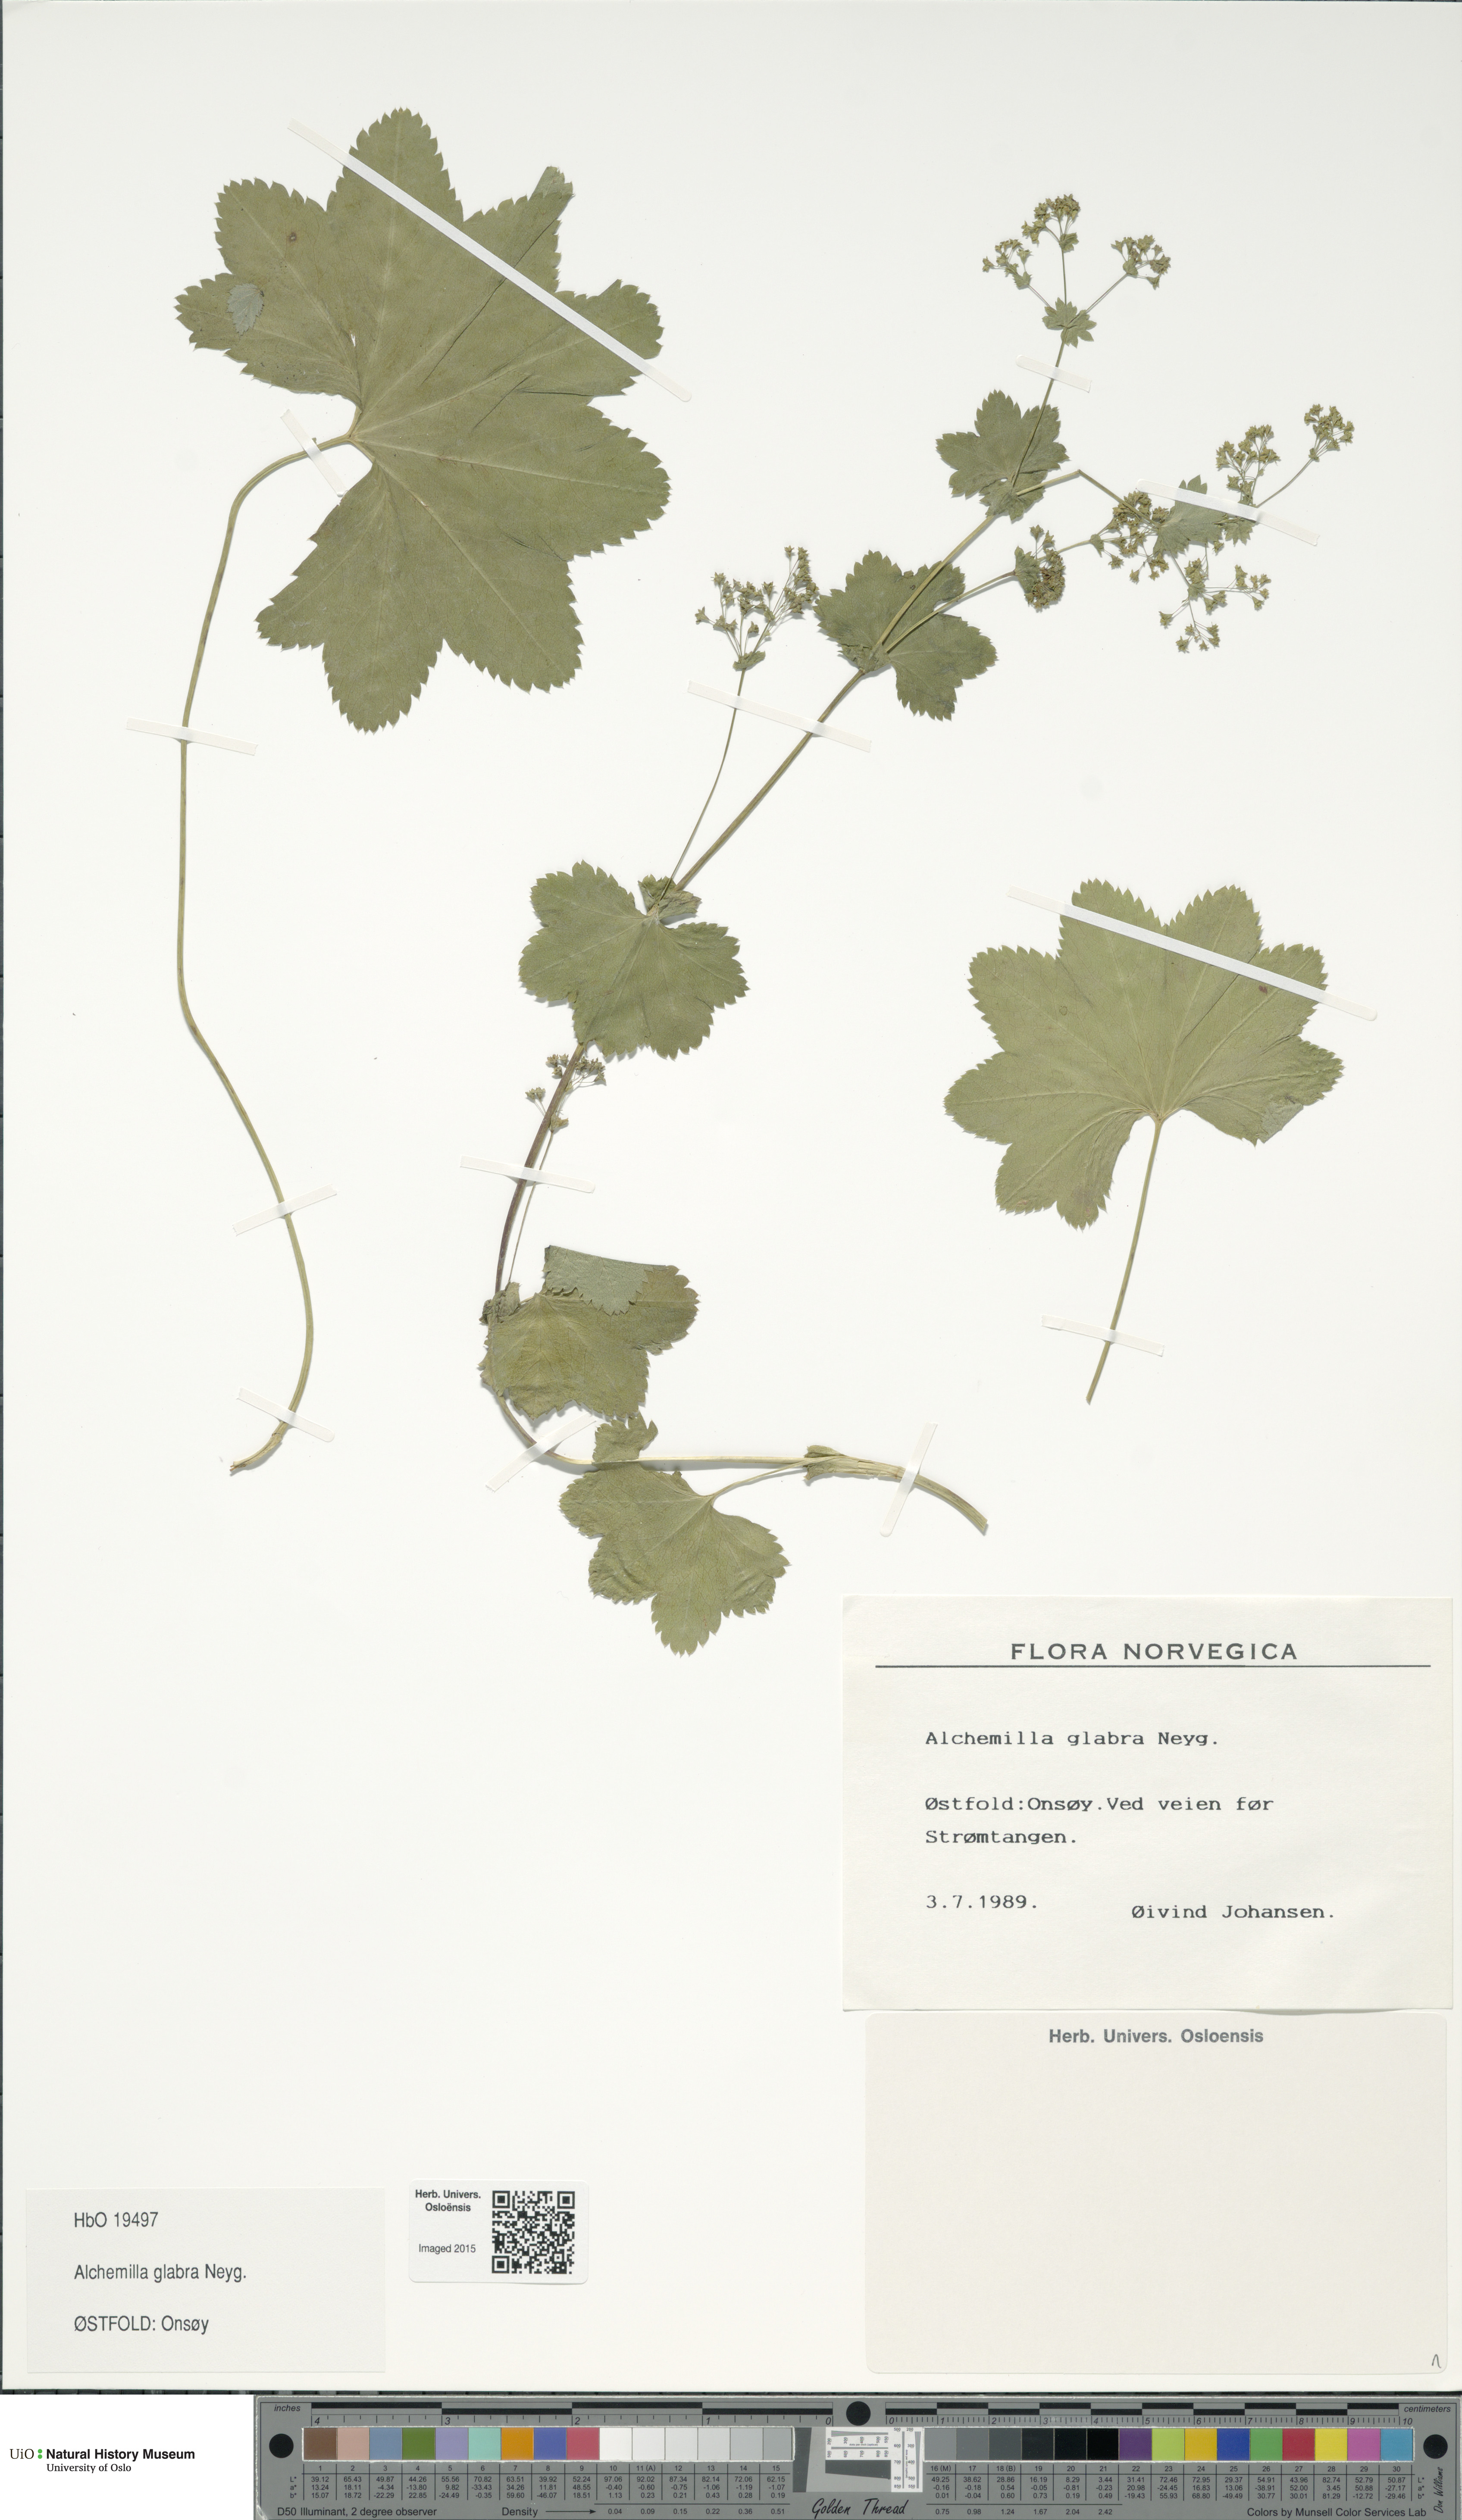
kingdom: Plantae
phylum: Tracheophyta
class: Magnoliopsida
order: Rosales
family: Rosaceae
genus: Alchemilla
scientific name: Alchemilla glabra
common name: Smooth lady's-mantle
